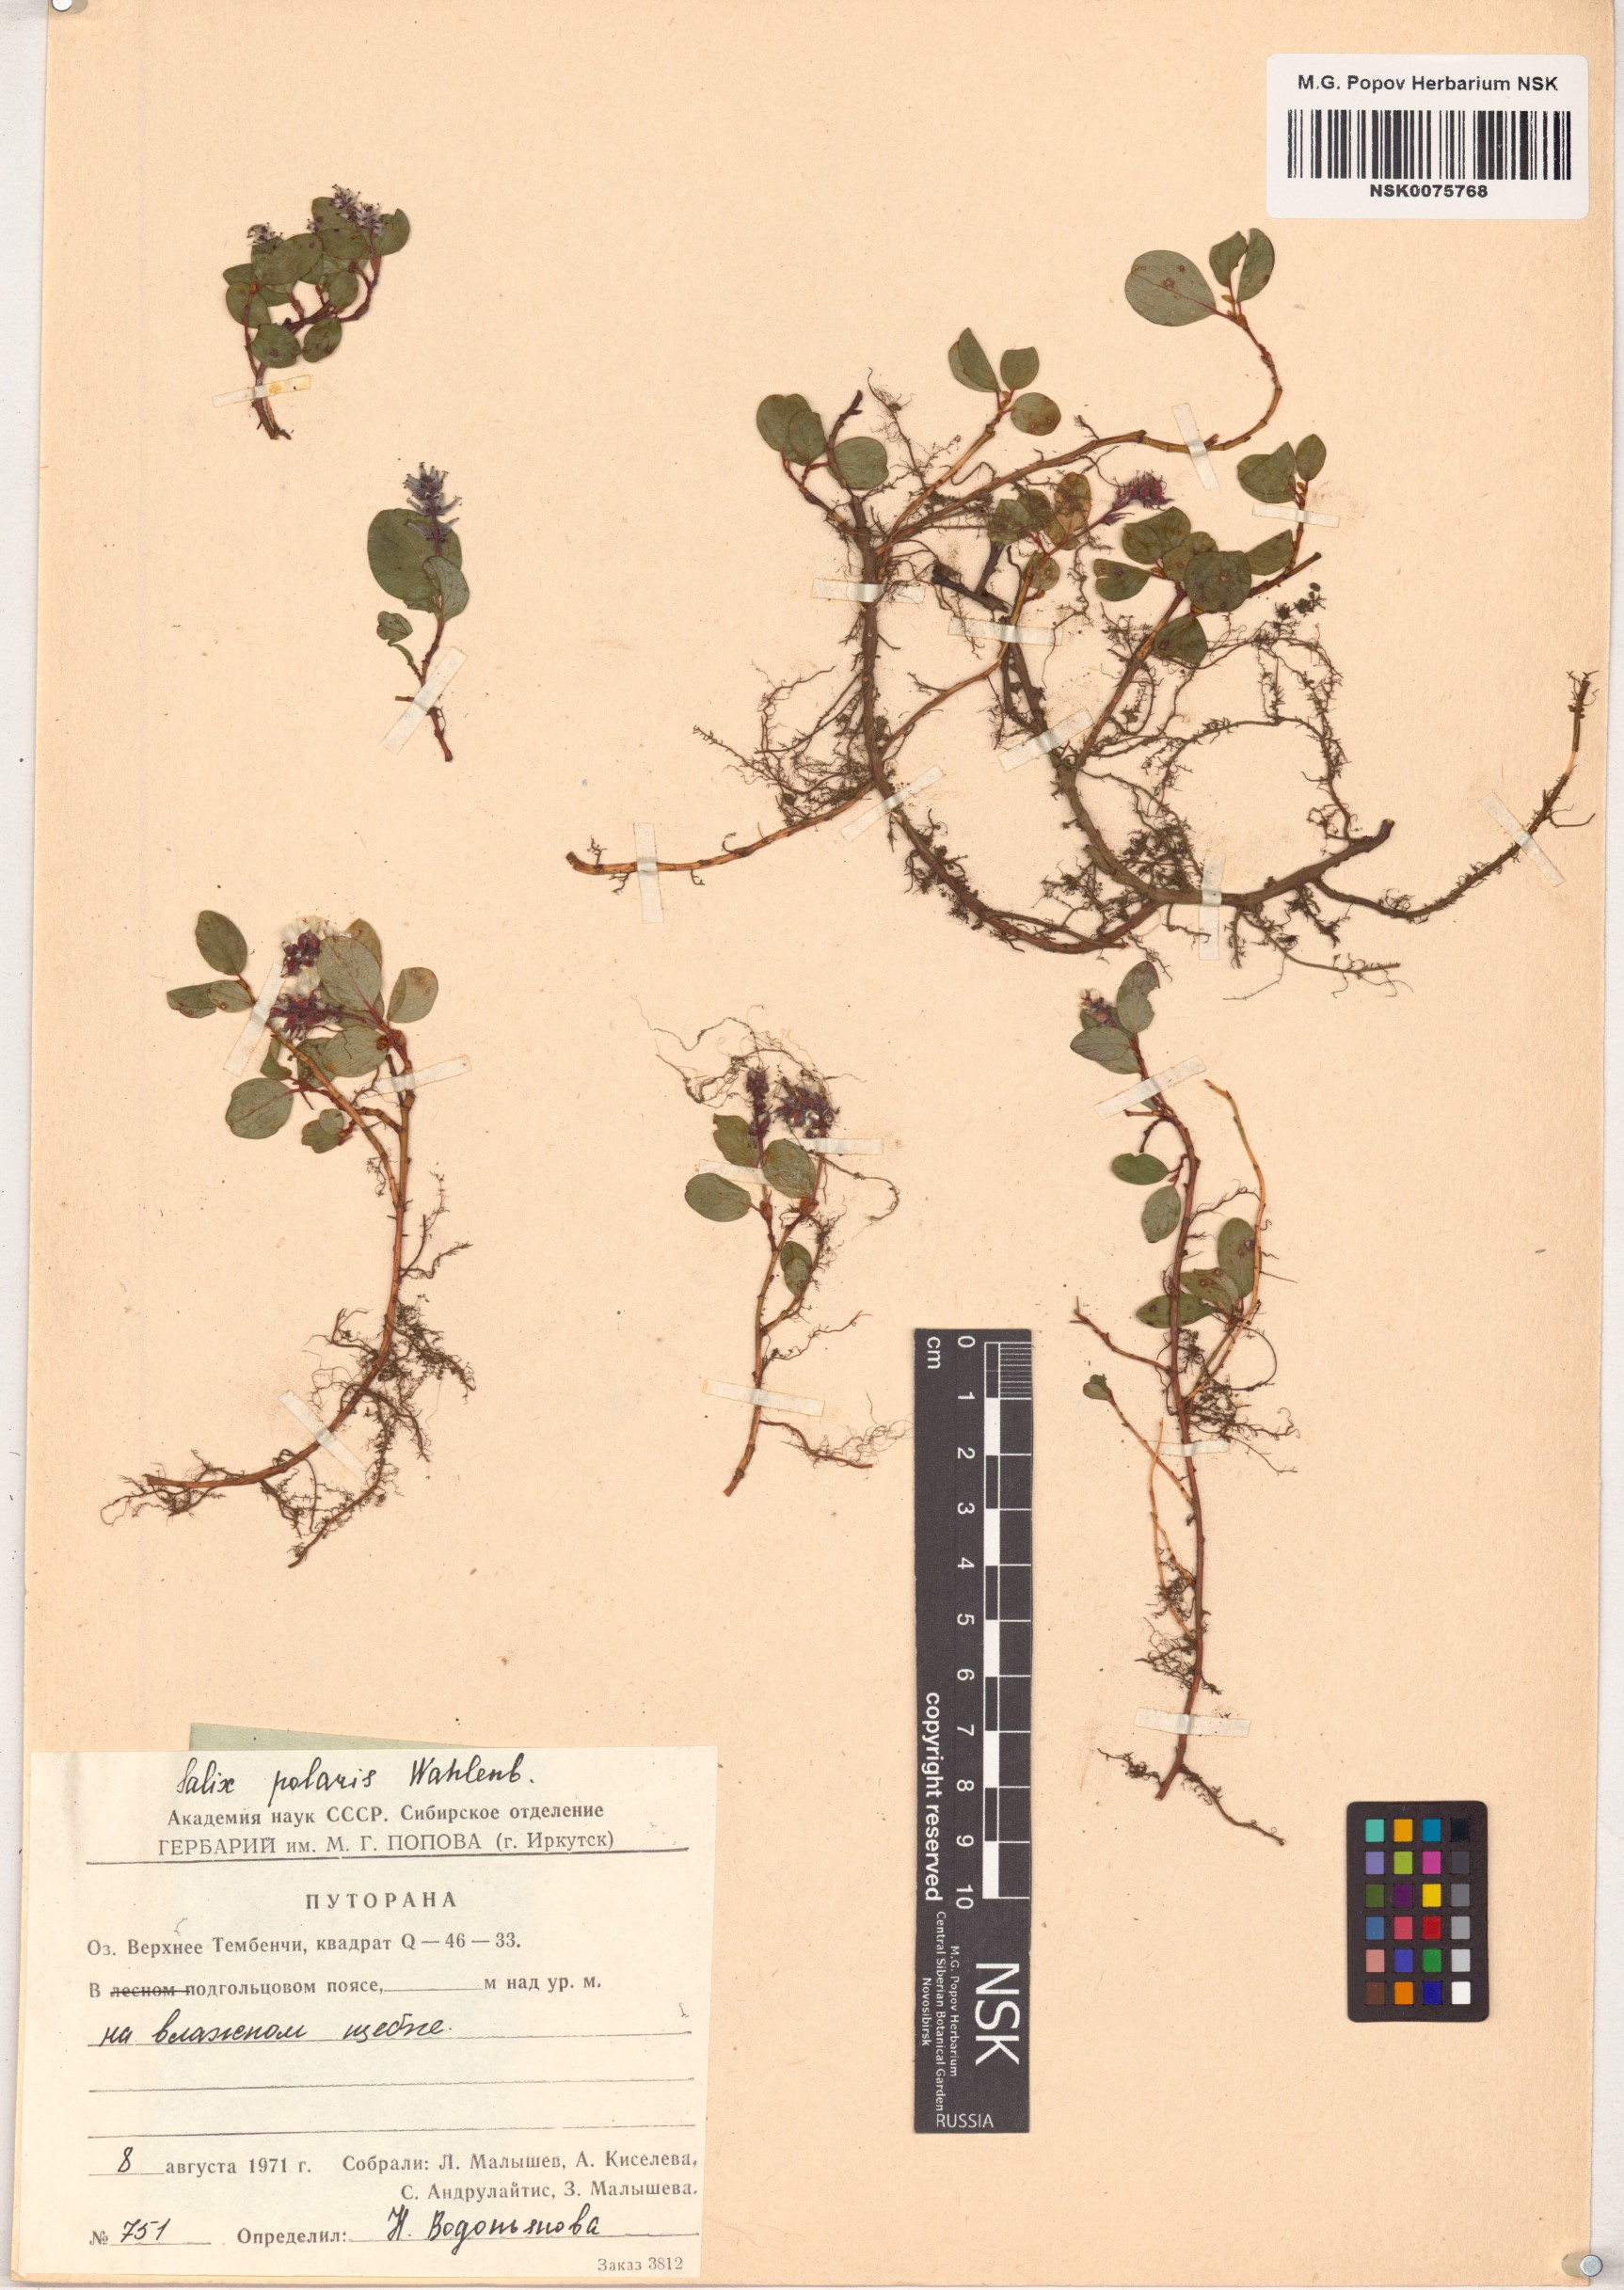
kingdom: Plantae
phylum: Tracheophyta
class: Magnoliopsida
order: Malpighiales
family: Salicaceae
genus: Salix
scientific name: Salix polaris
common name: Polar willow
